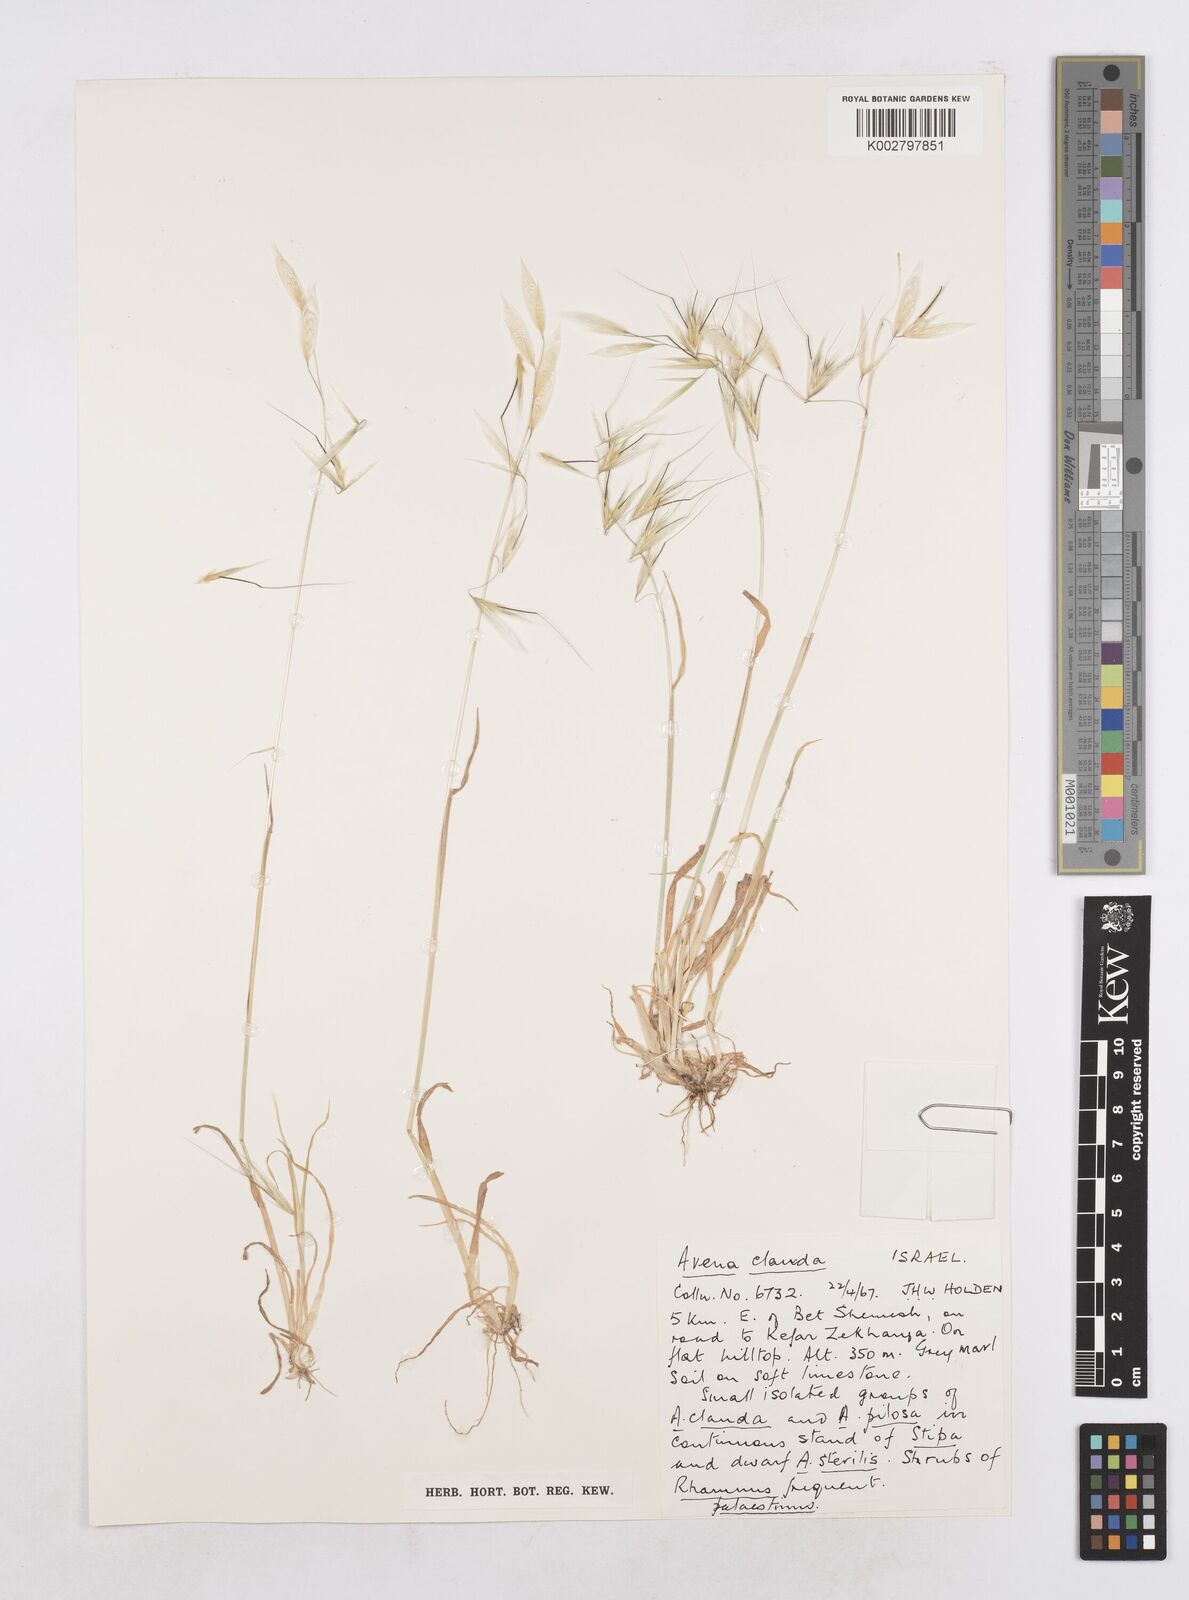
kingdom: Plantae
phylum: Tracheophyta
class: Liliopsida
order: Poales
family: Poaceae
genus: Avena
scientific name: Avena clauda
